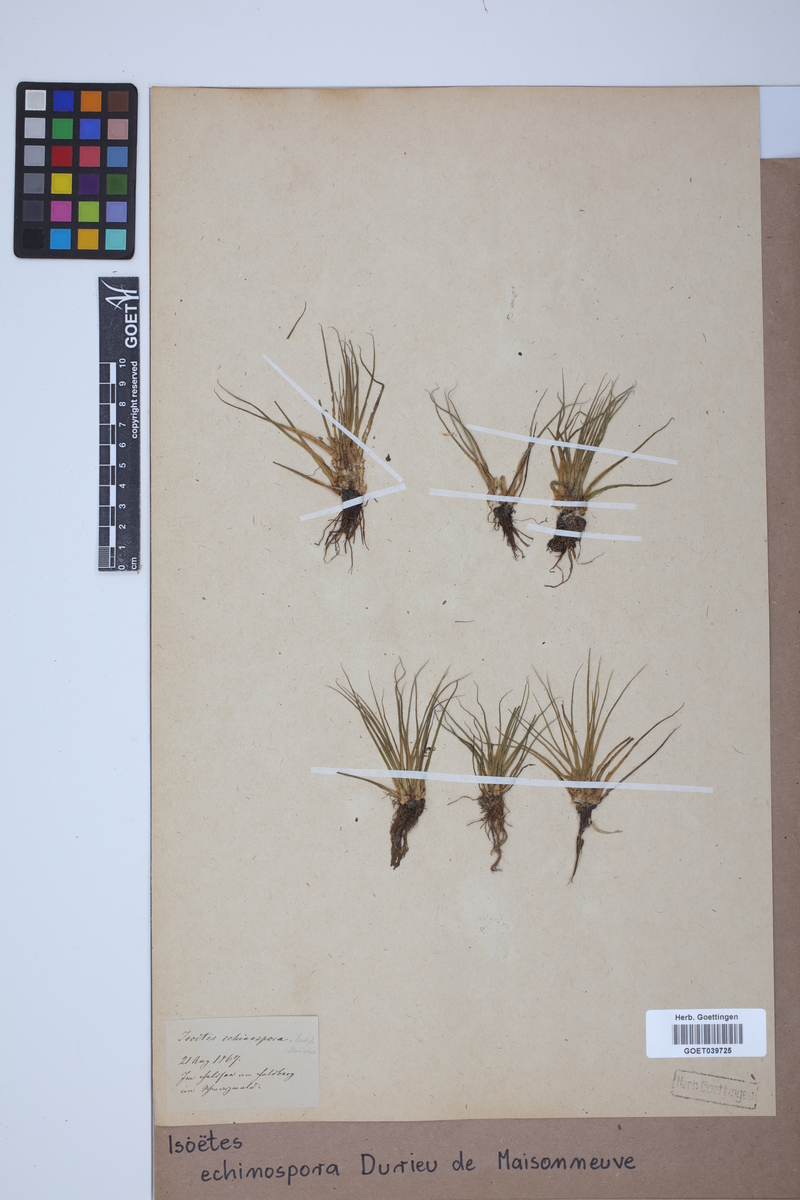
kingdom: Plantae
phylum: Tracheophyta
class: Lycopodiopsida
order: Isoetales
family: Isoetaceae
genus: Isoetes
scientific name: Isoetes echinospora
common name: Spring quillwort
